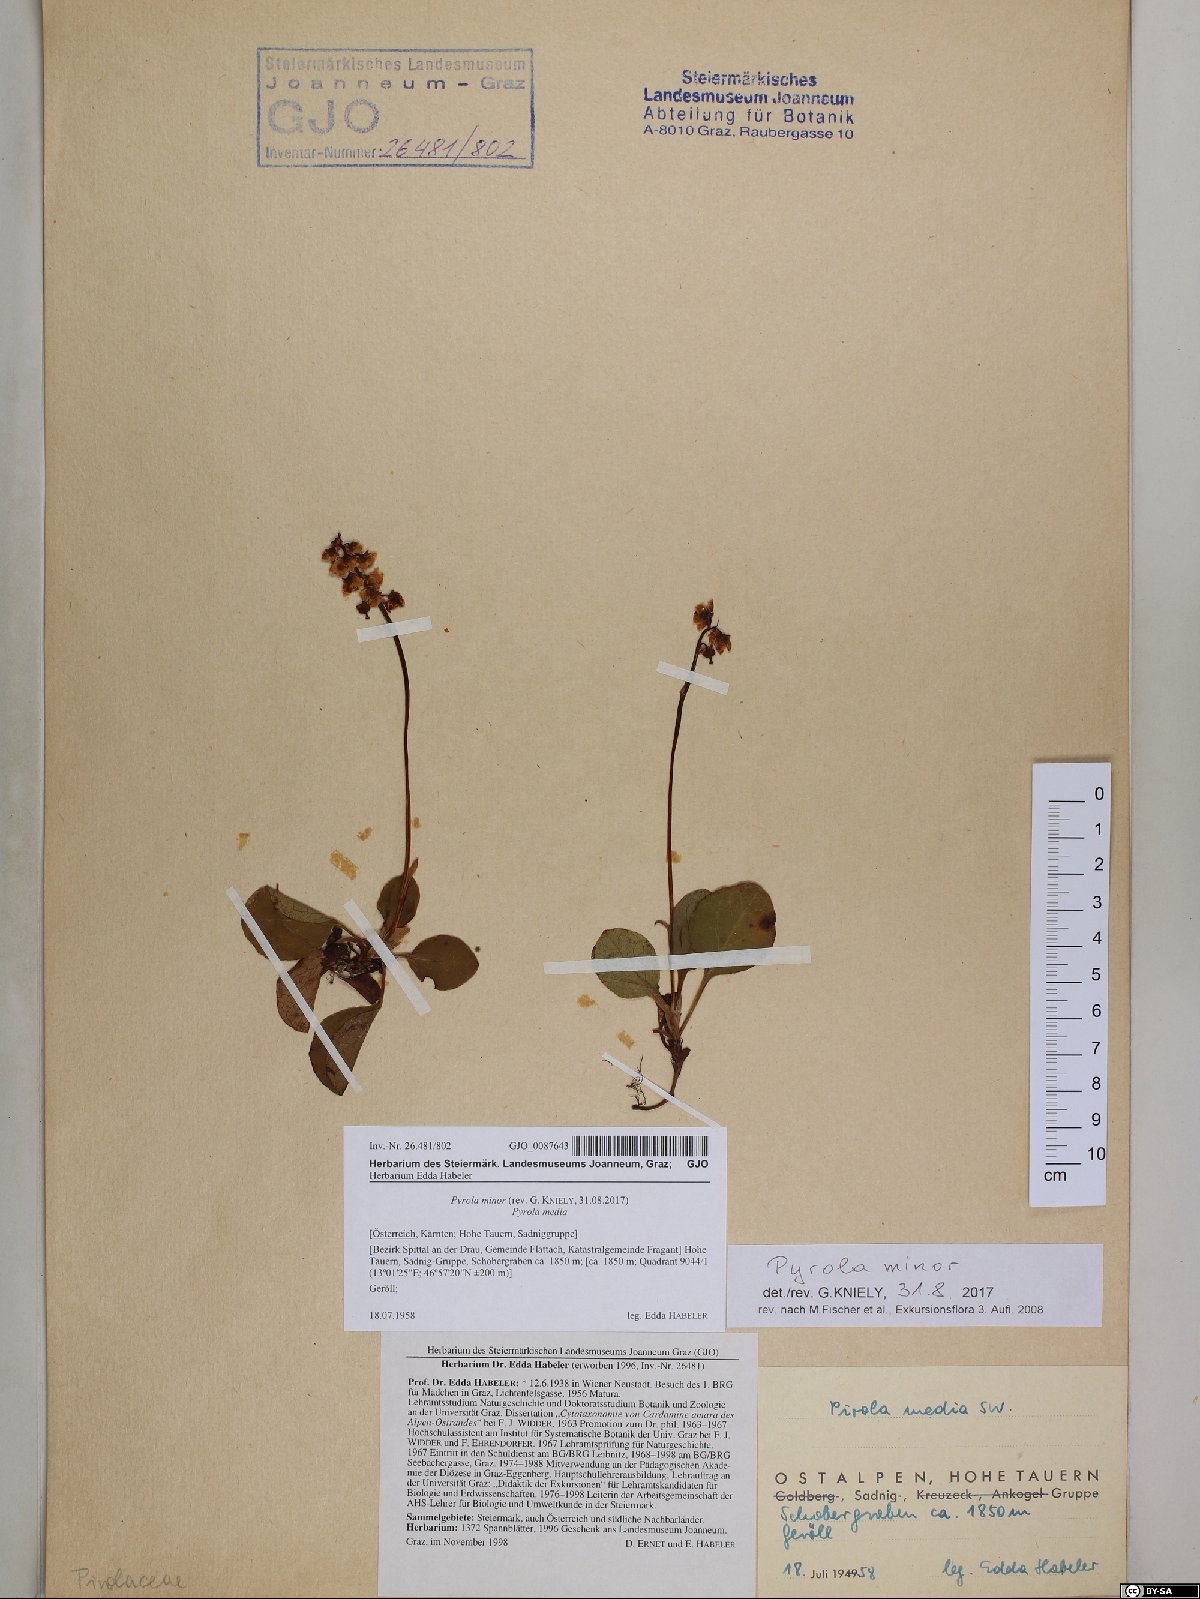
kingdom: Plantae
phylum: Tracheophyta
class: Magnoliopsida
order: Ericales
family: Ericaceae
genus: Pyrola
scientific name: Pyrola minor
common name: Common wintergreen
